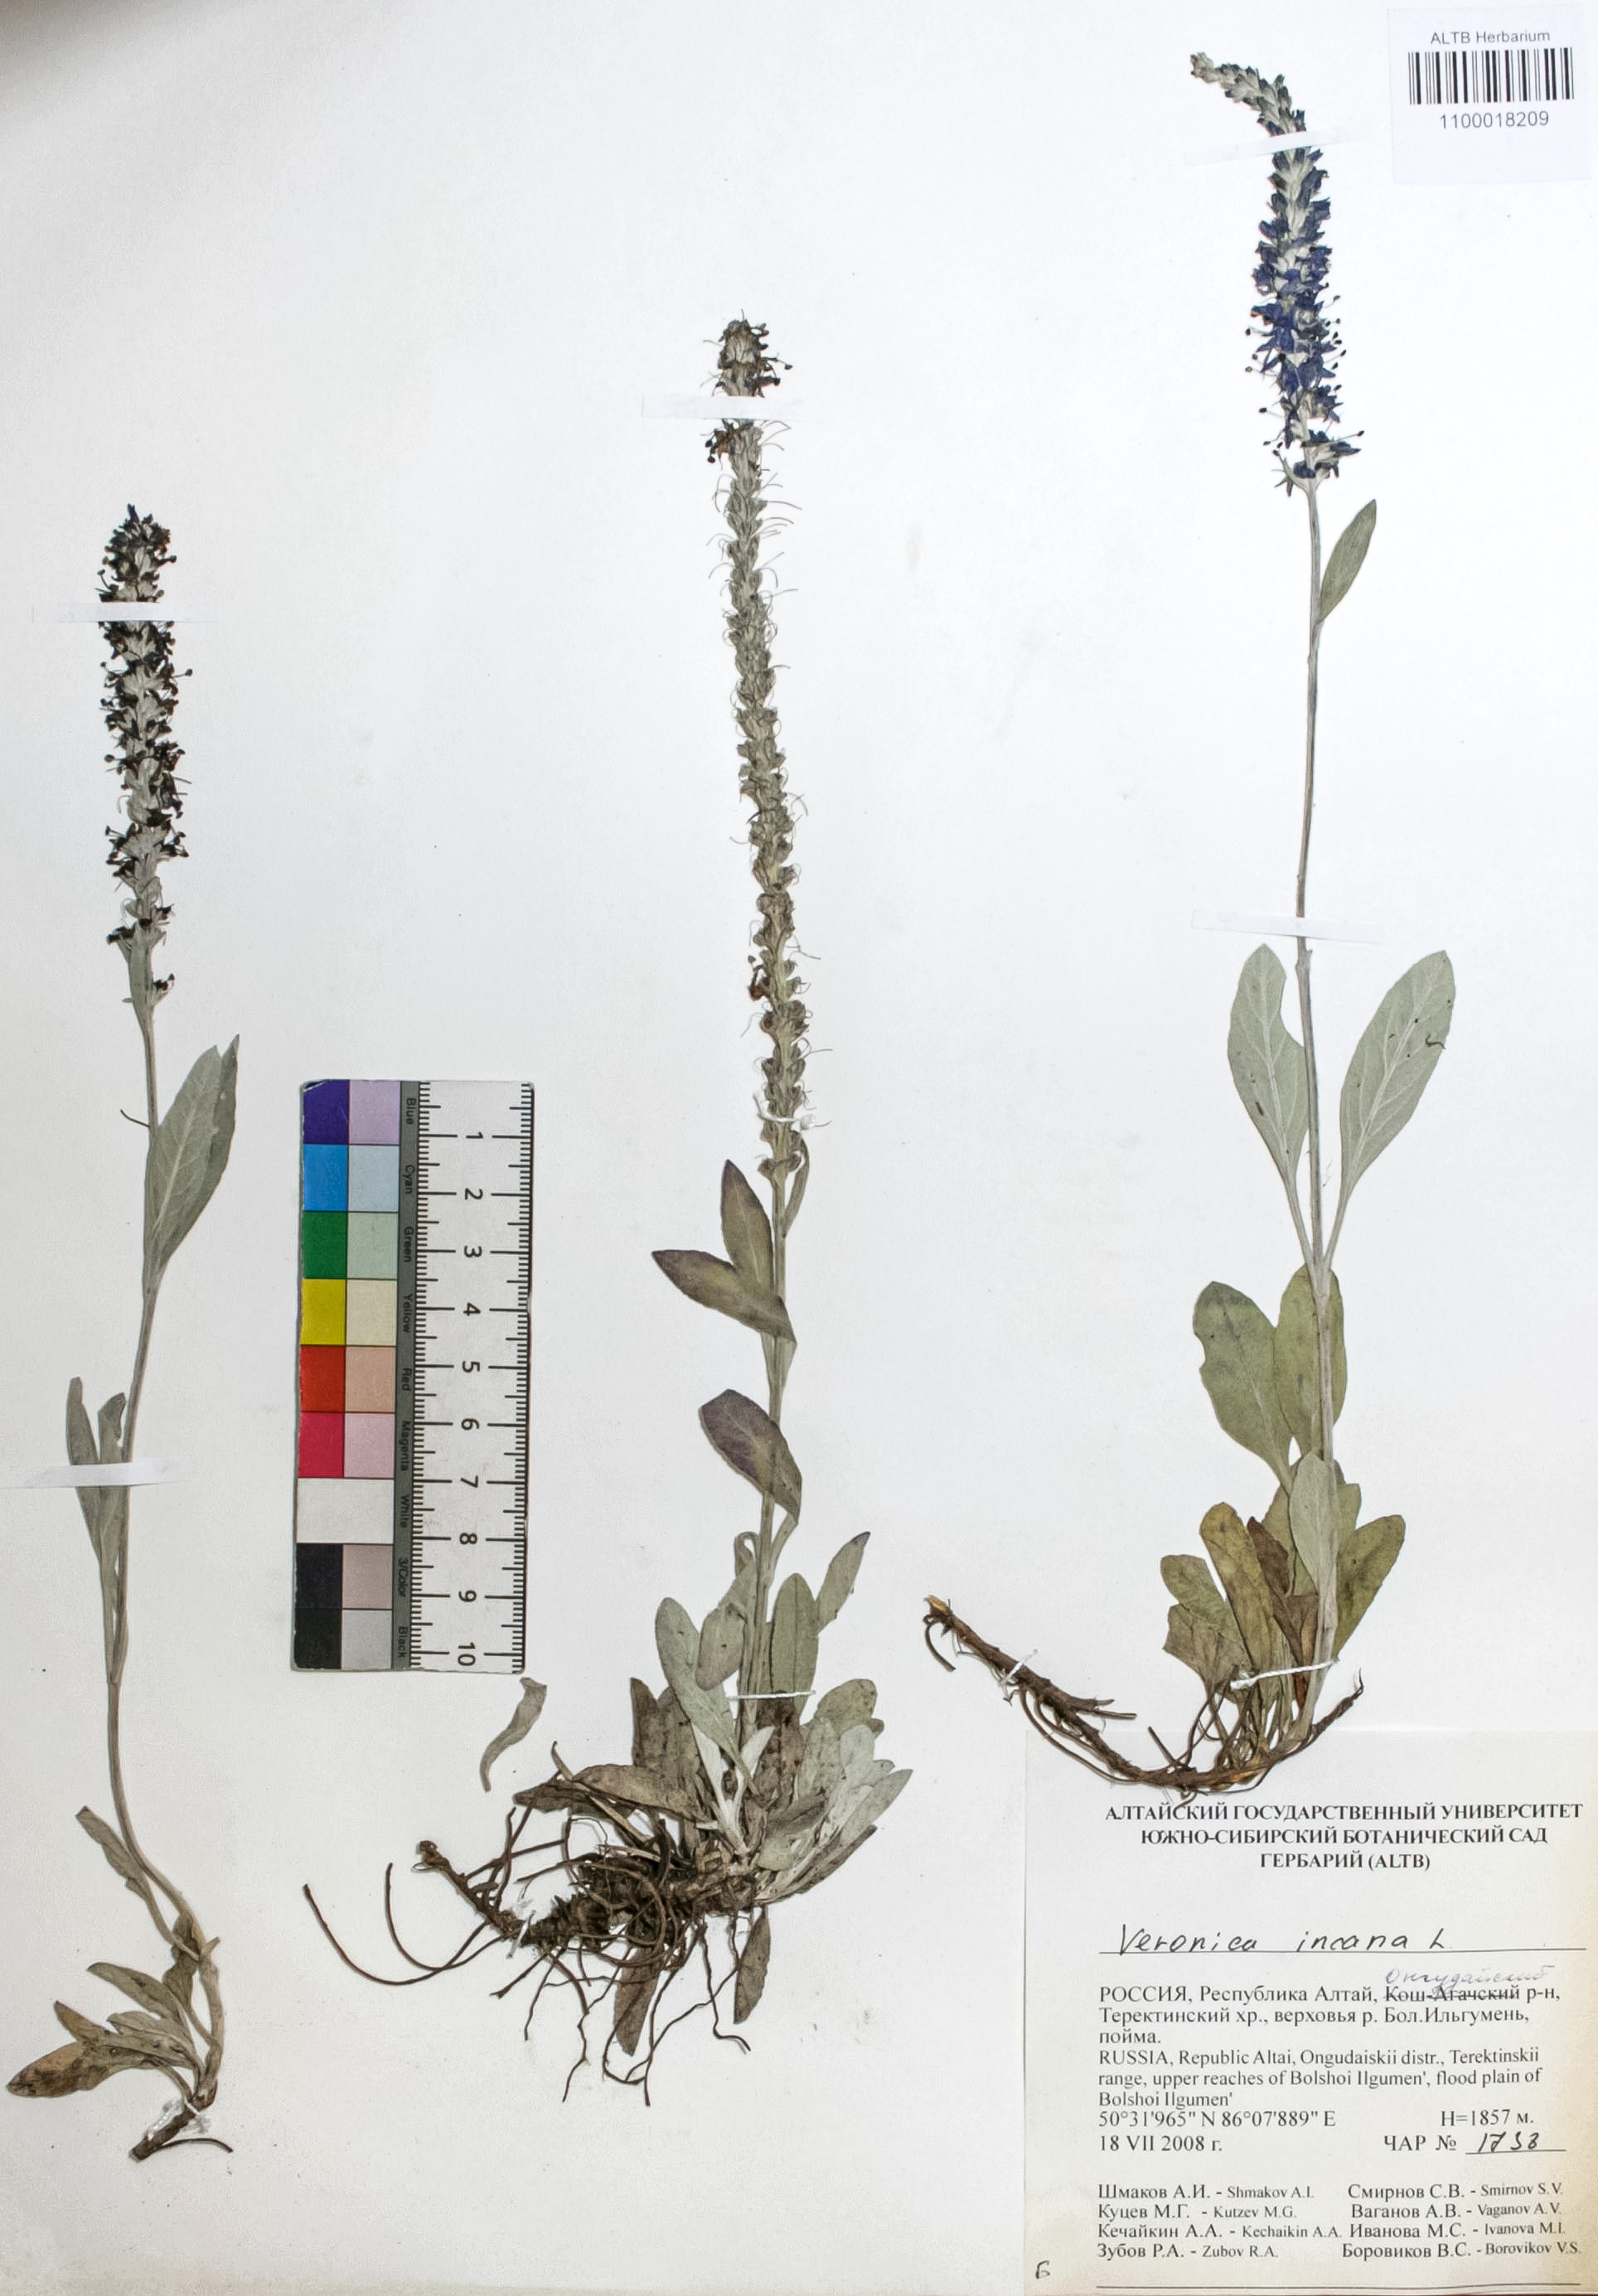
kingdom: Plantae
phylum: Tracheophyta
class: Magnoliopsida
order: Lamiales
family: Plantaginaceae
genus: Veronica
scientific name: Veronica incana
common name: Silver speedwell
